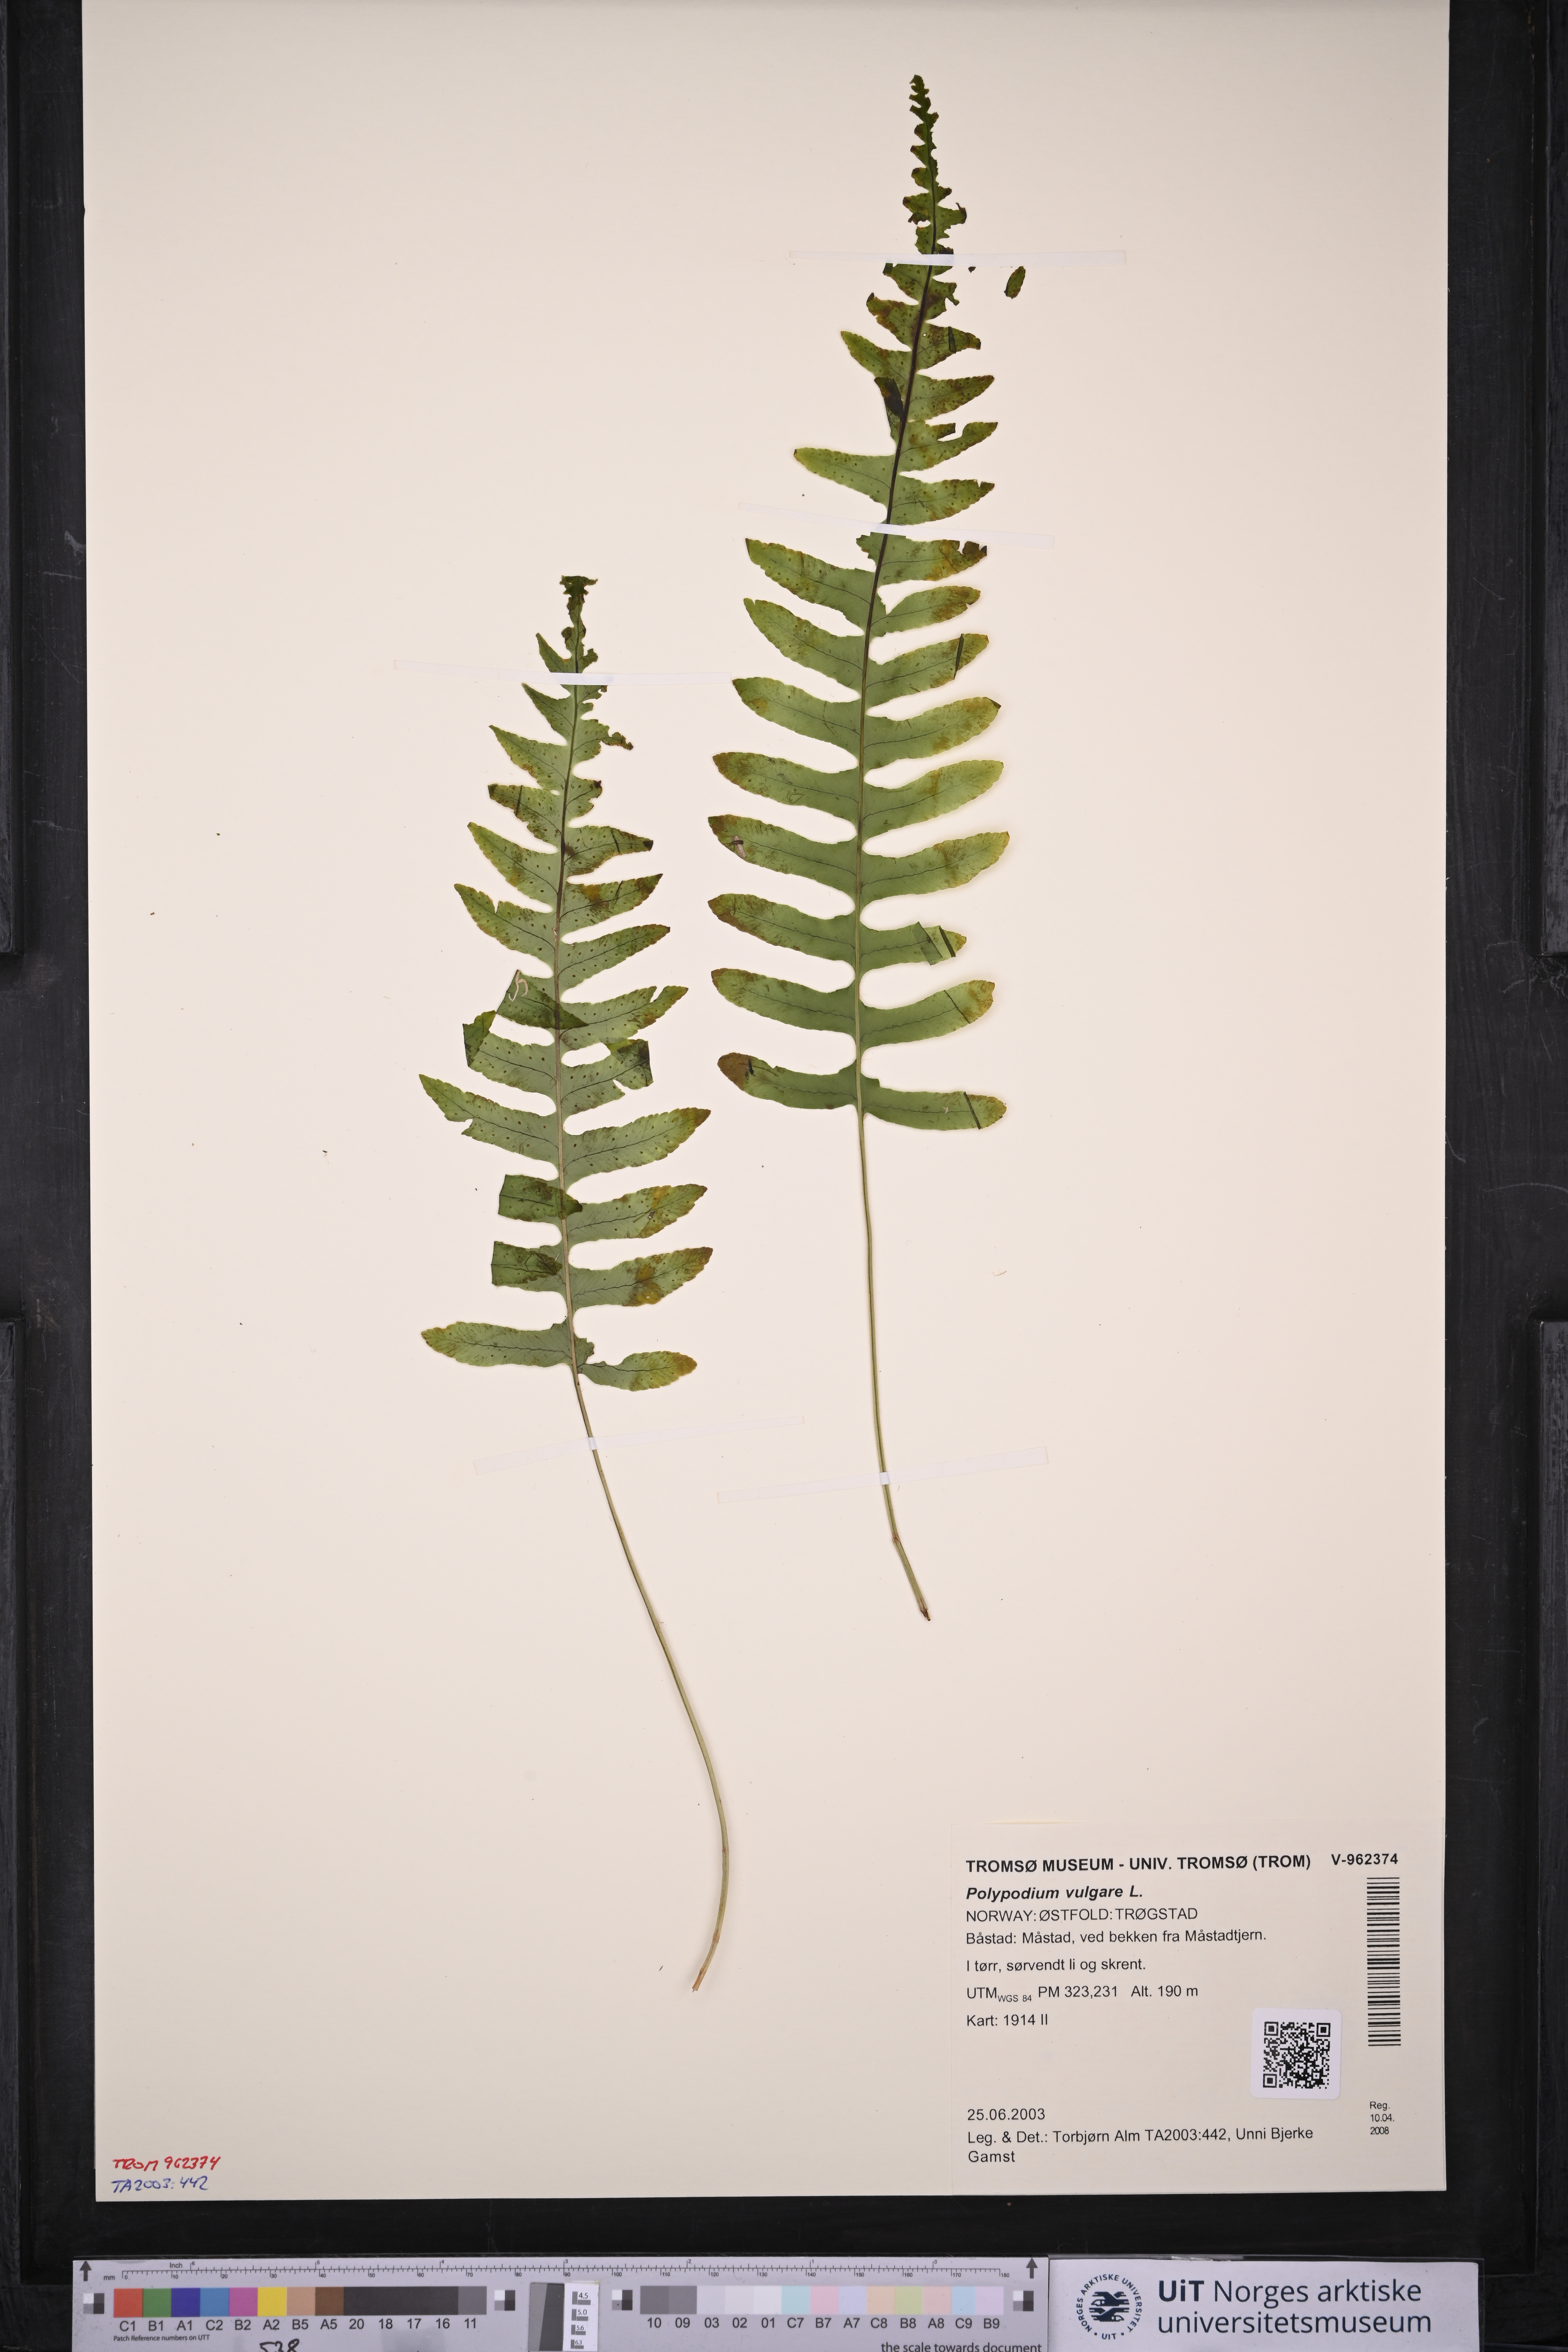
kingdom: Plantae
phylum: Tracheophyta
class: Polypodiopsida
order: Polypodiales
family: Polypodiaceae
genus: Polypodium
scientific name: Polypodium vulgare
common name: Common polypody
